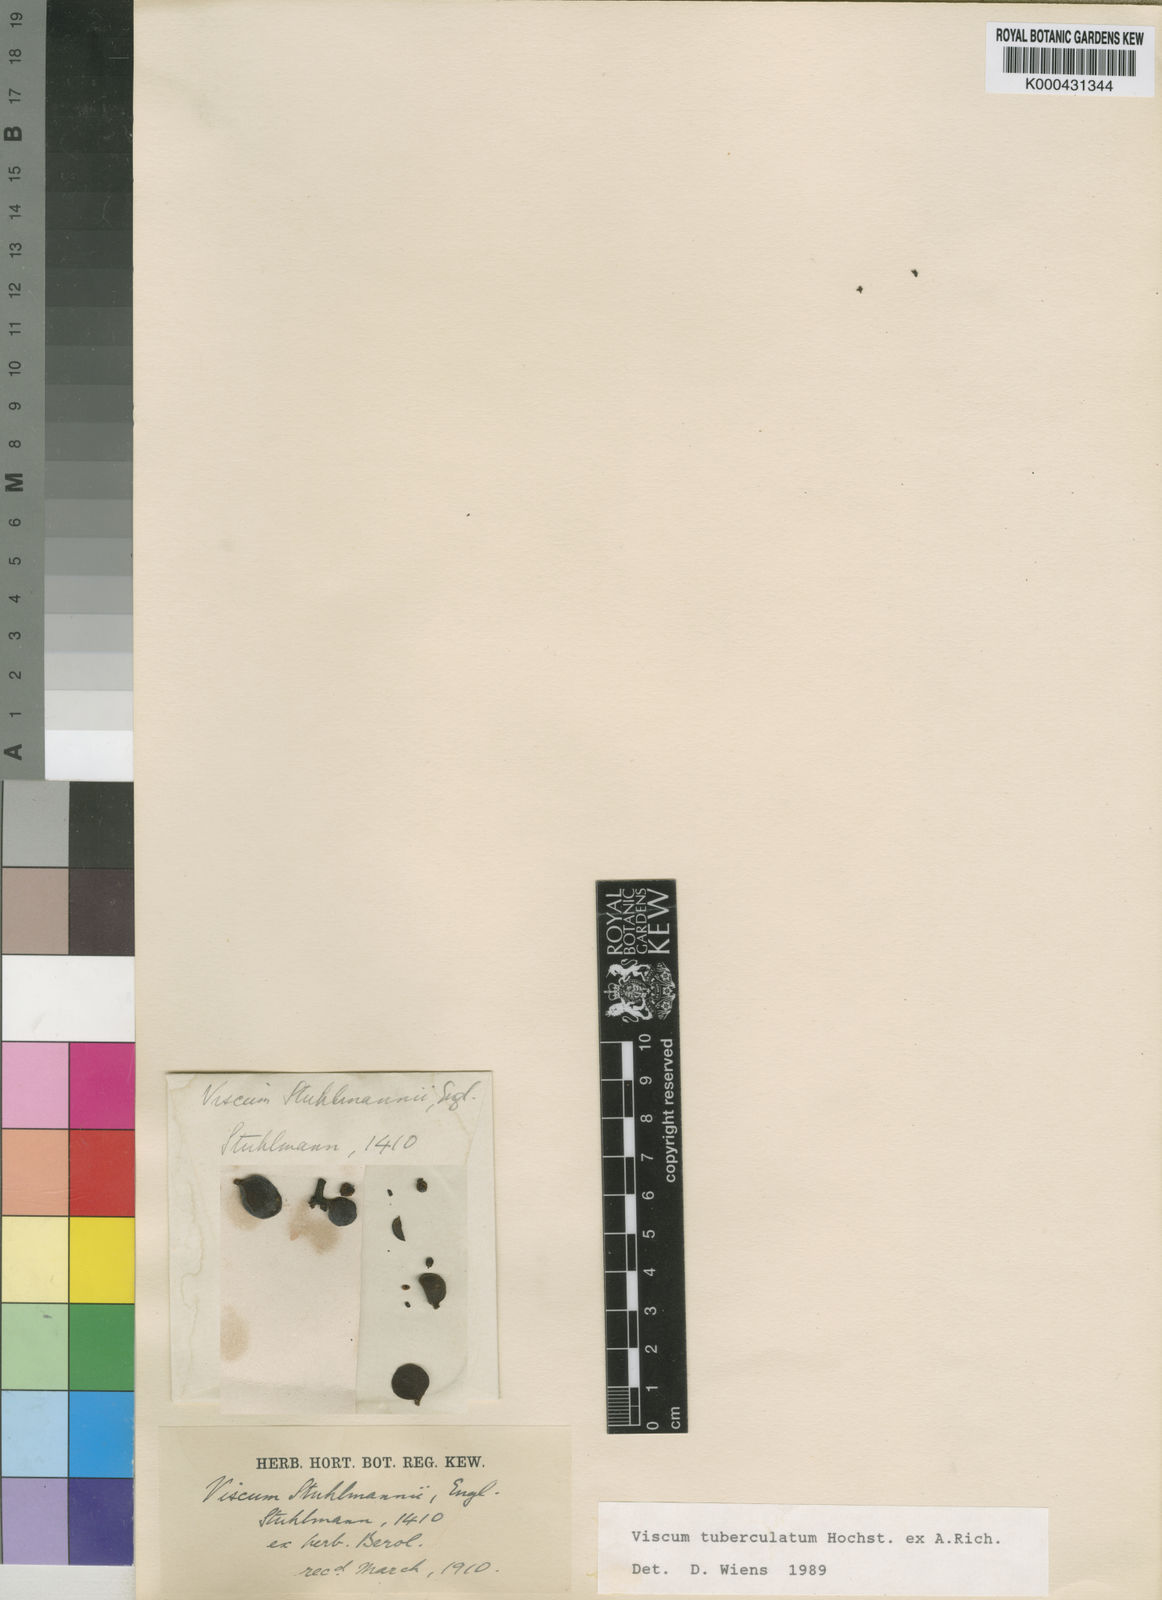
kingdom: Plantae
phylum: Tracheophyta
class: Magnoliopsida
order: Santalales
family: Viscaceae
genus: Viscum
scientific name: Viscum tuberculatum
